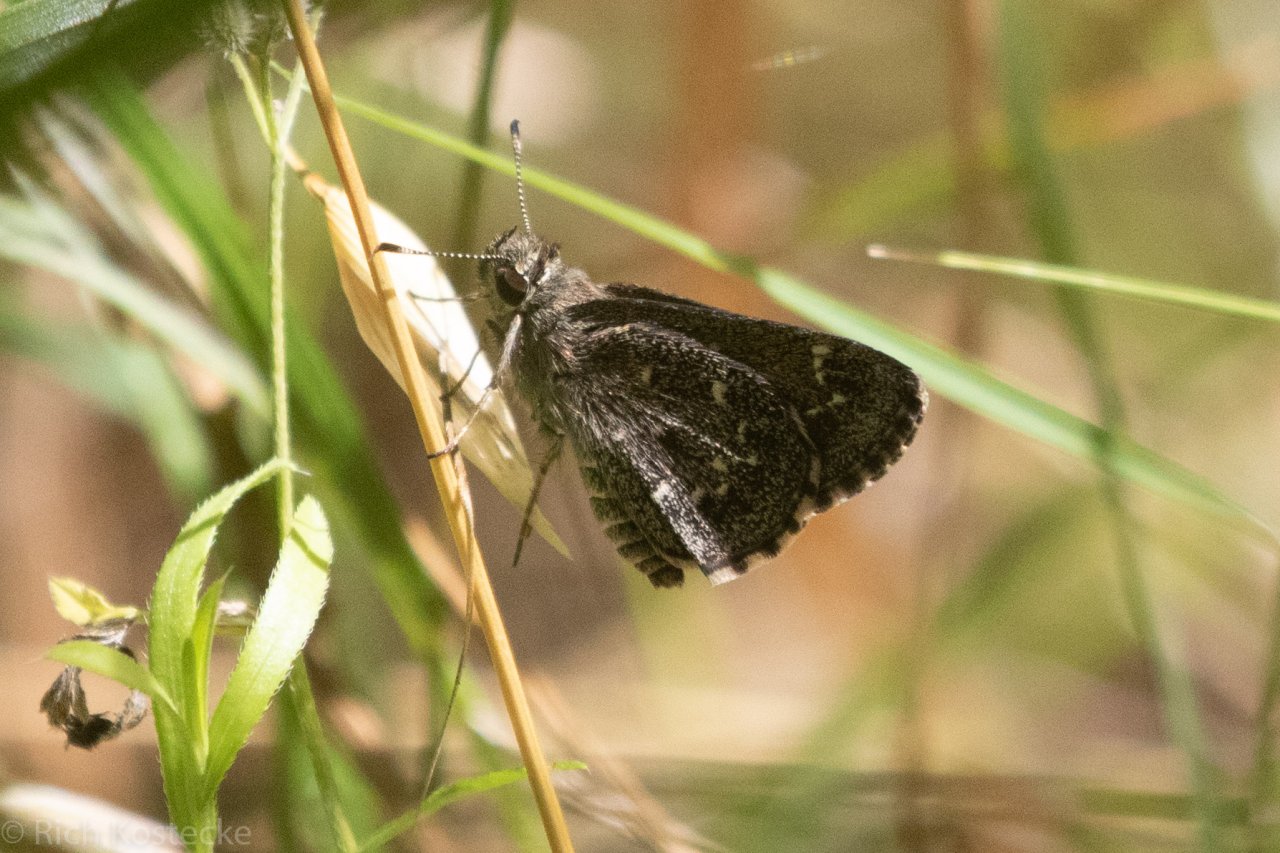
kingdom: Animalia
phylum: Arthropoda
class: Insecta
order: Lepidoptera
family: Hesperiidae
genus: Mastor
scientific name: Mastor celia
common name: Celia's Roadside-Skipper
